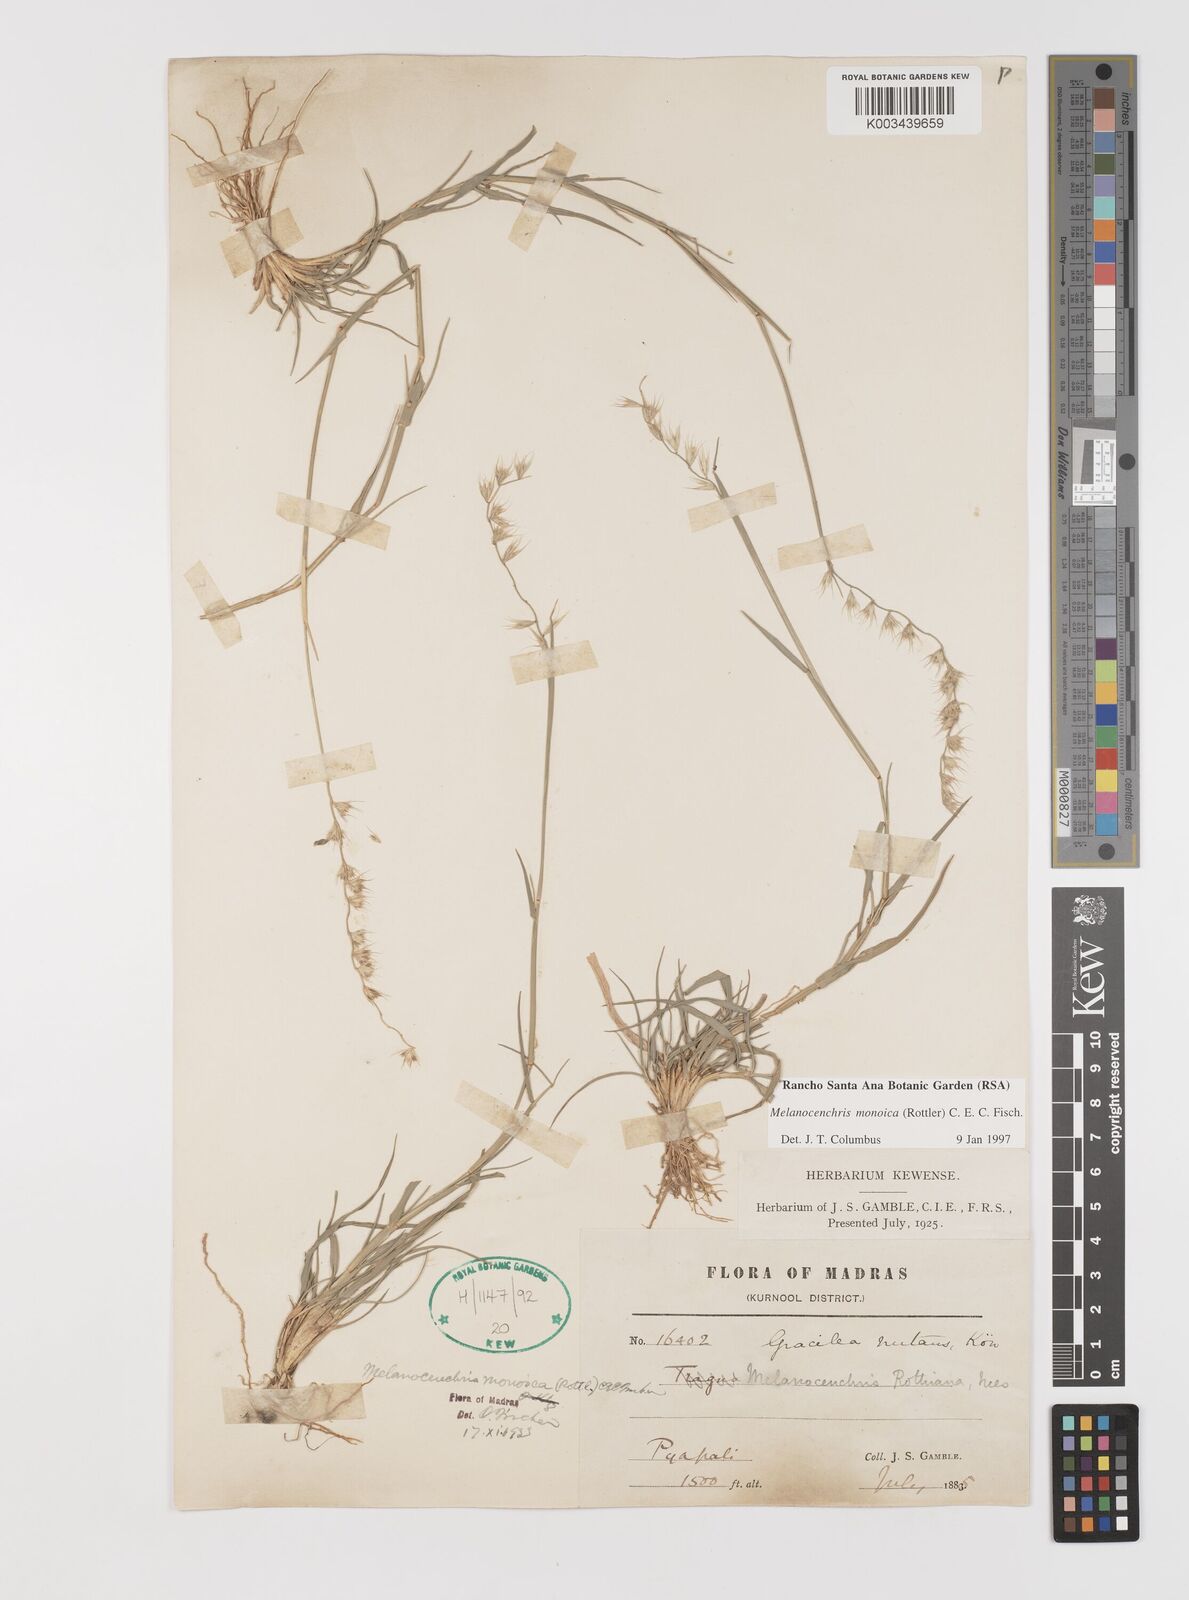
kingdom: Plantae
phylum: Tracheophyta
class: Liliopsida
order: Poales
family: Poaceae
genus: Melanocenchris
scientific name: Melanocenchris rothiana
